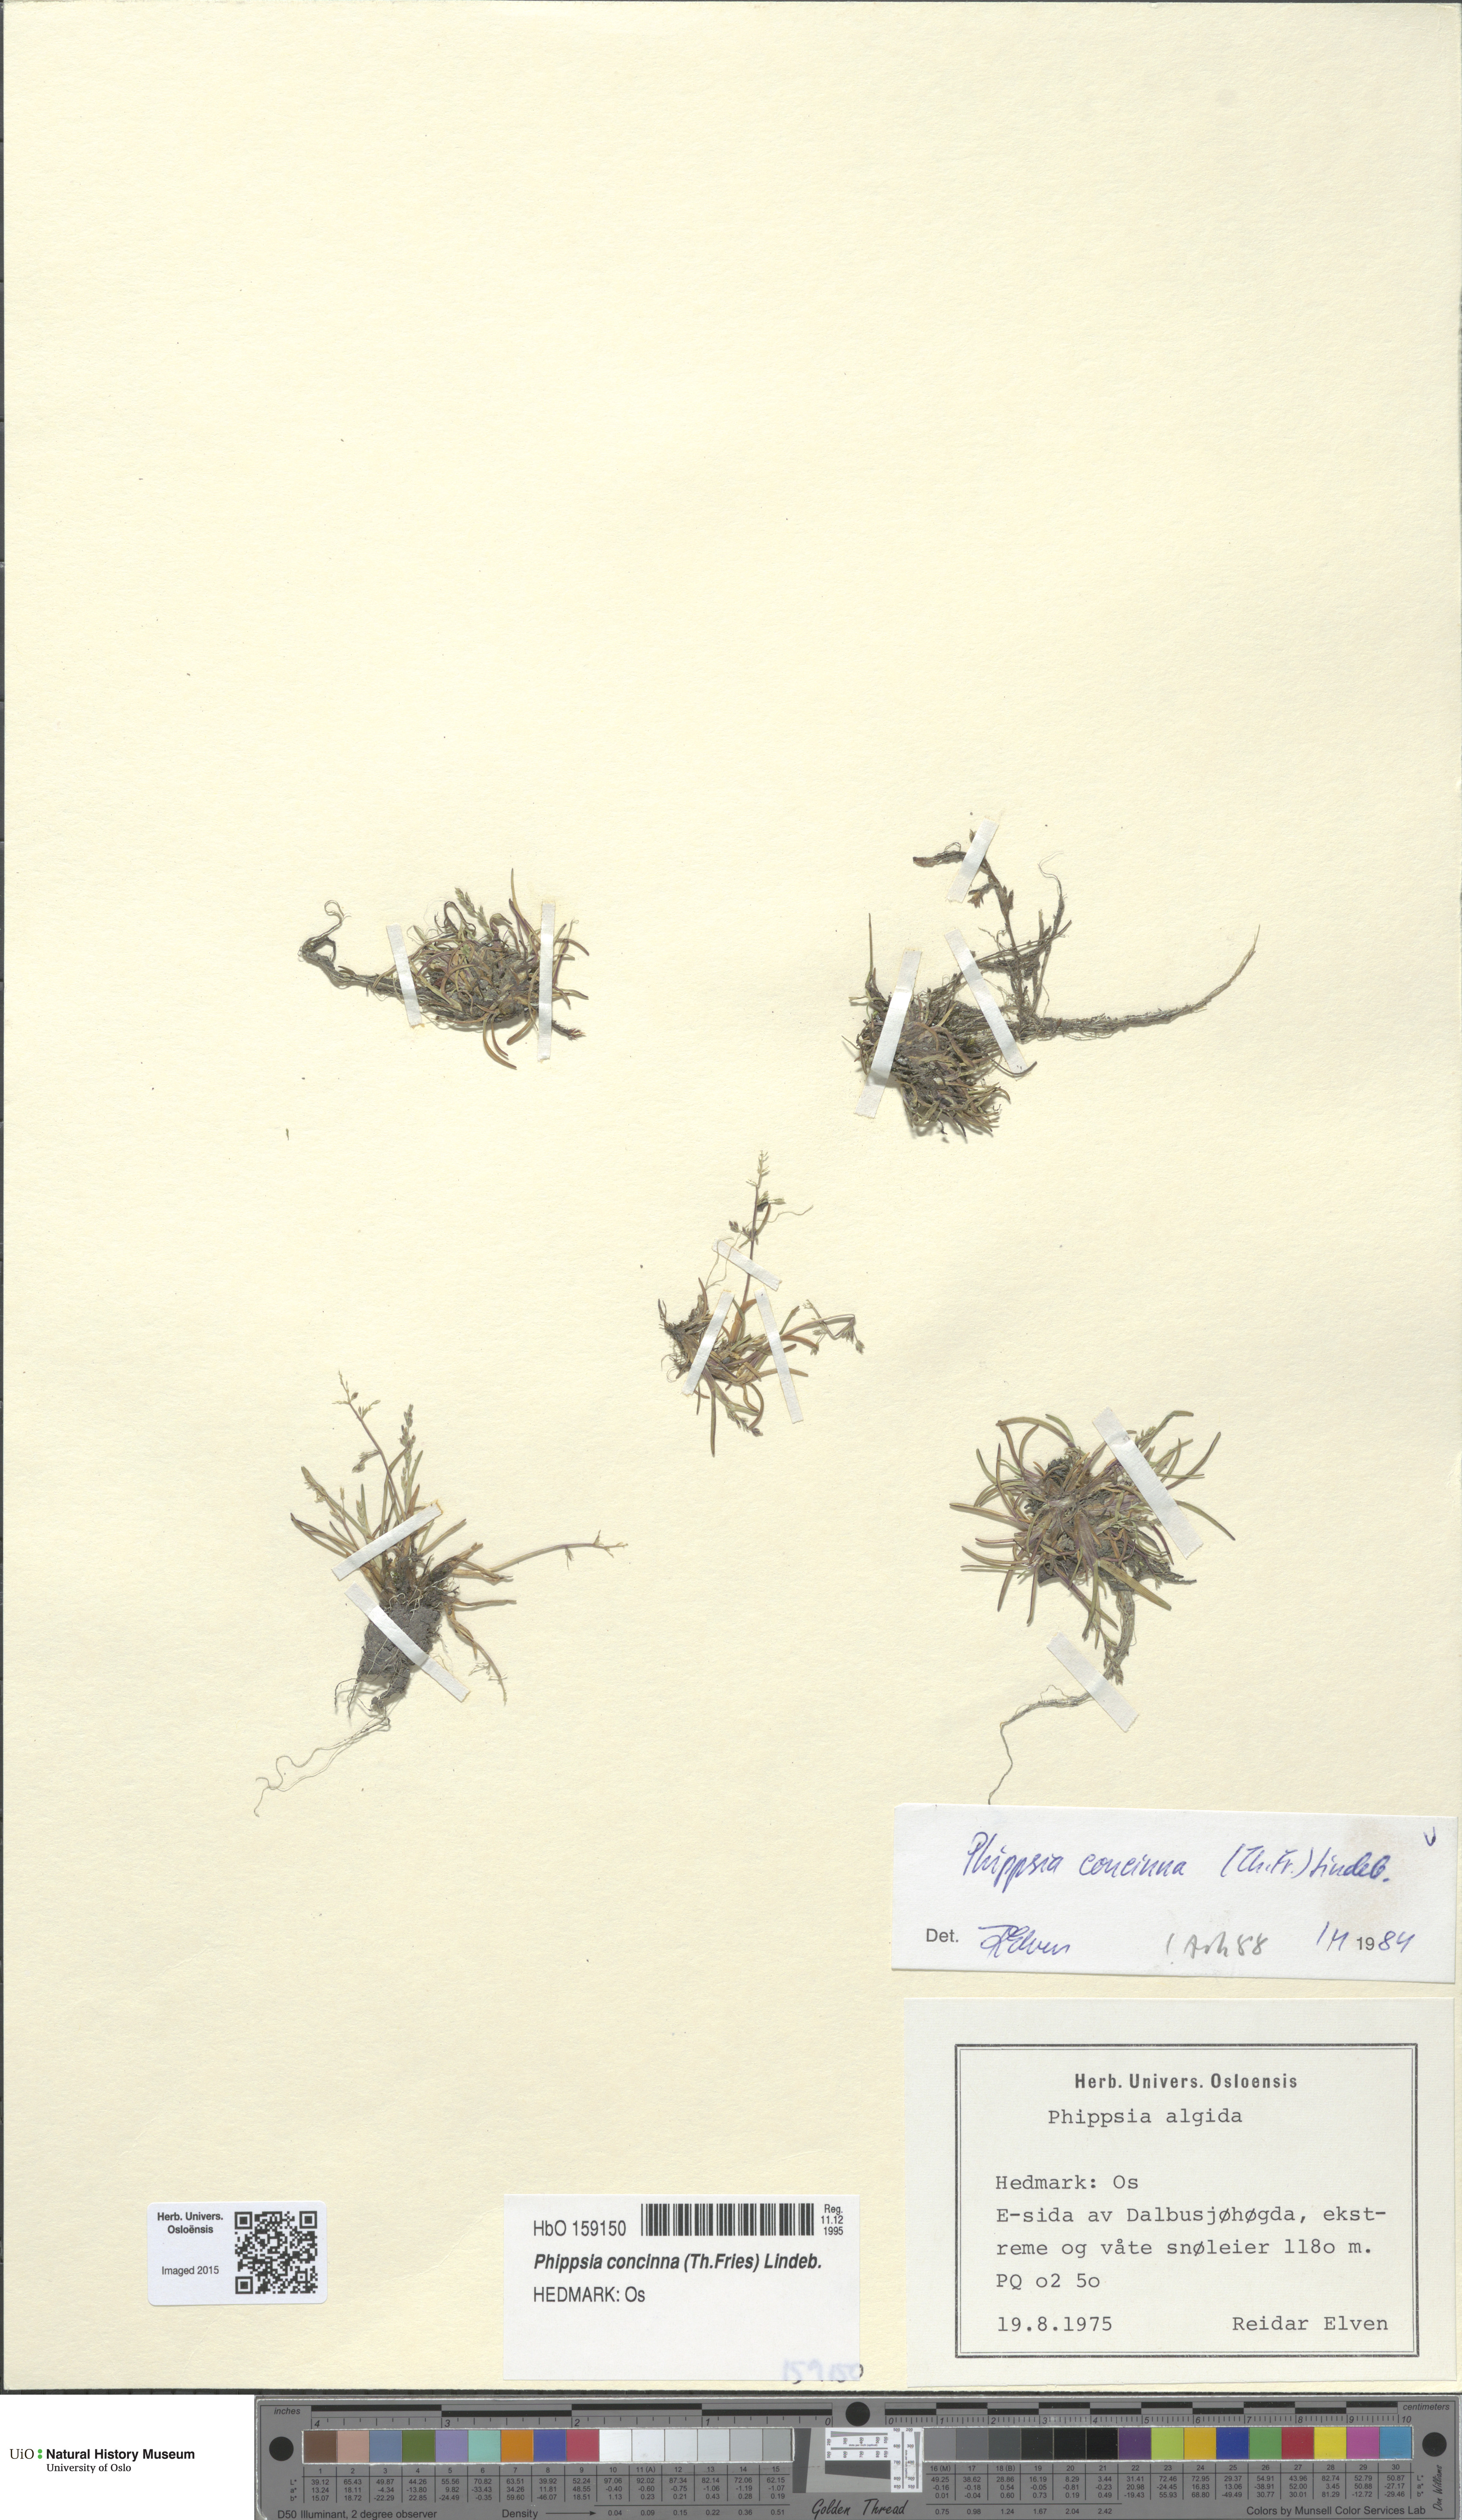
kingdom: Plantae
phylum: Tracheophyta
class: Liliopsida
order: Poales
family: Poaceae
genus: Phippsia
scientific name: Phippsia concinna
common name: Snowgrass
